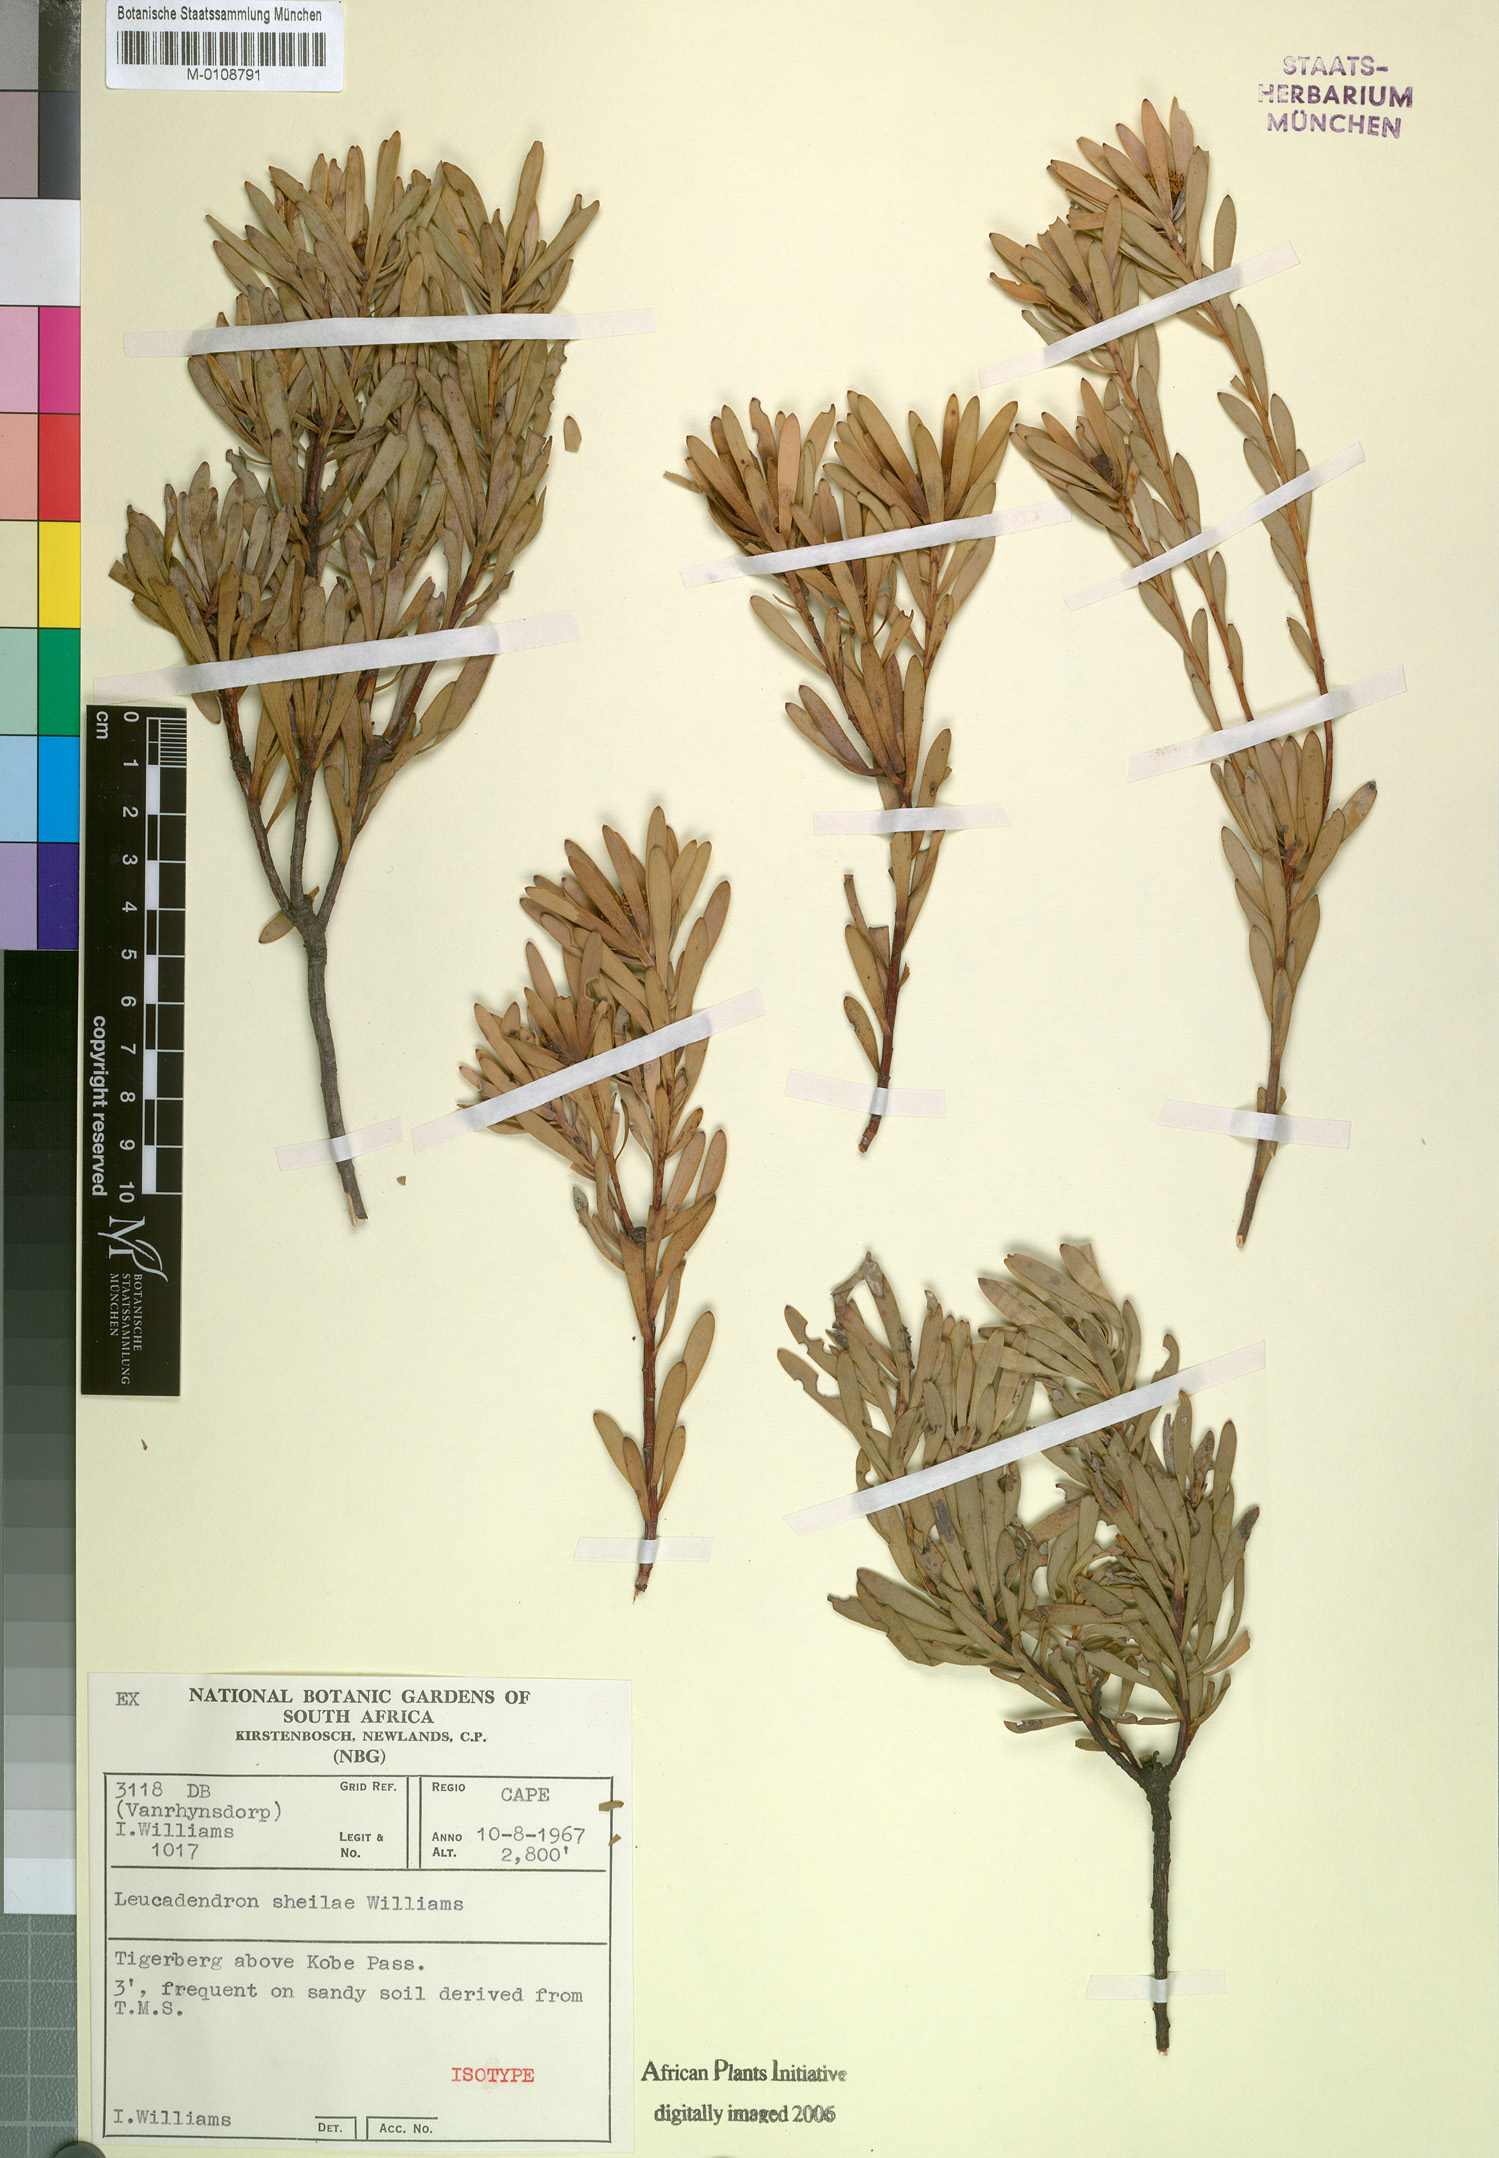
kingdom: Plantae
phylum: Tracheophyta
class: Magnoliopsida
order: Proteales
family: Proteaceae
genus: Leucadendron
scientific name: Leucadendron gydoense
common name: Gydo conebush
